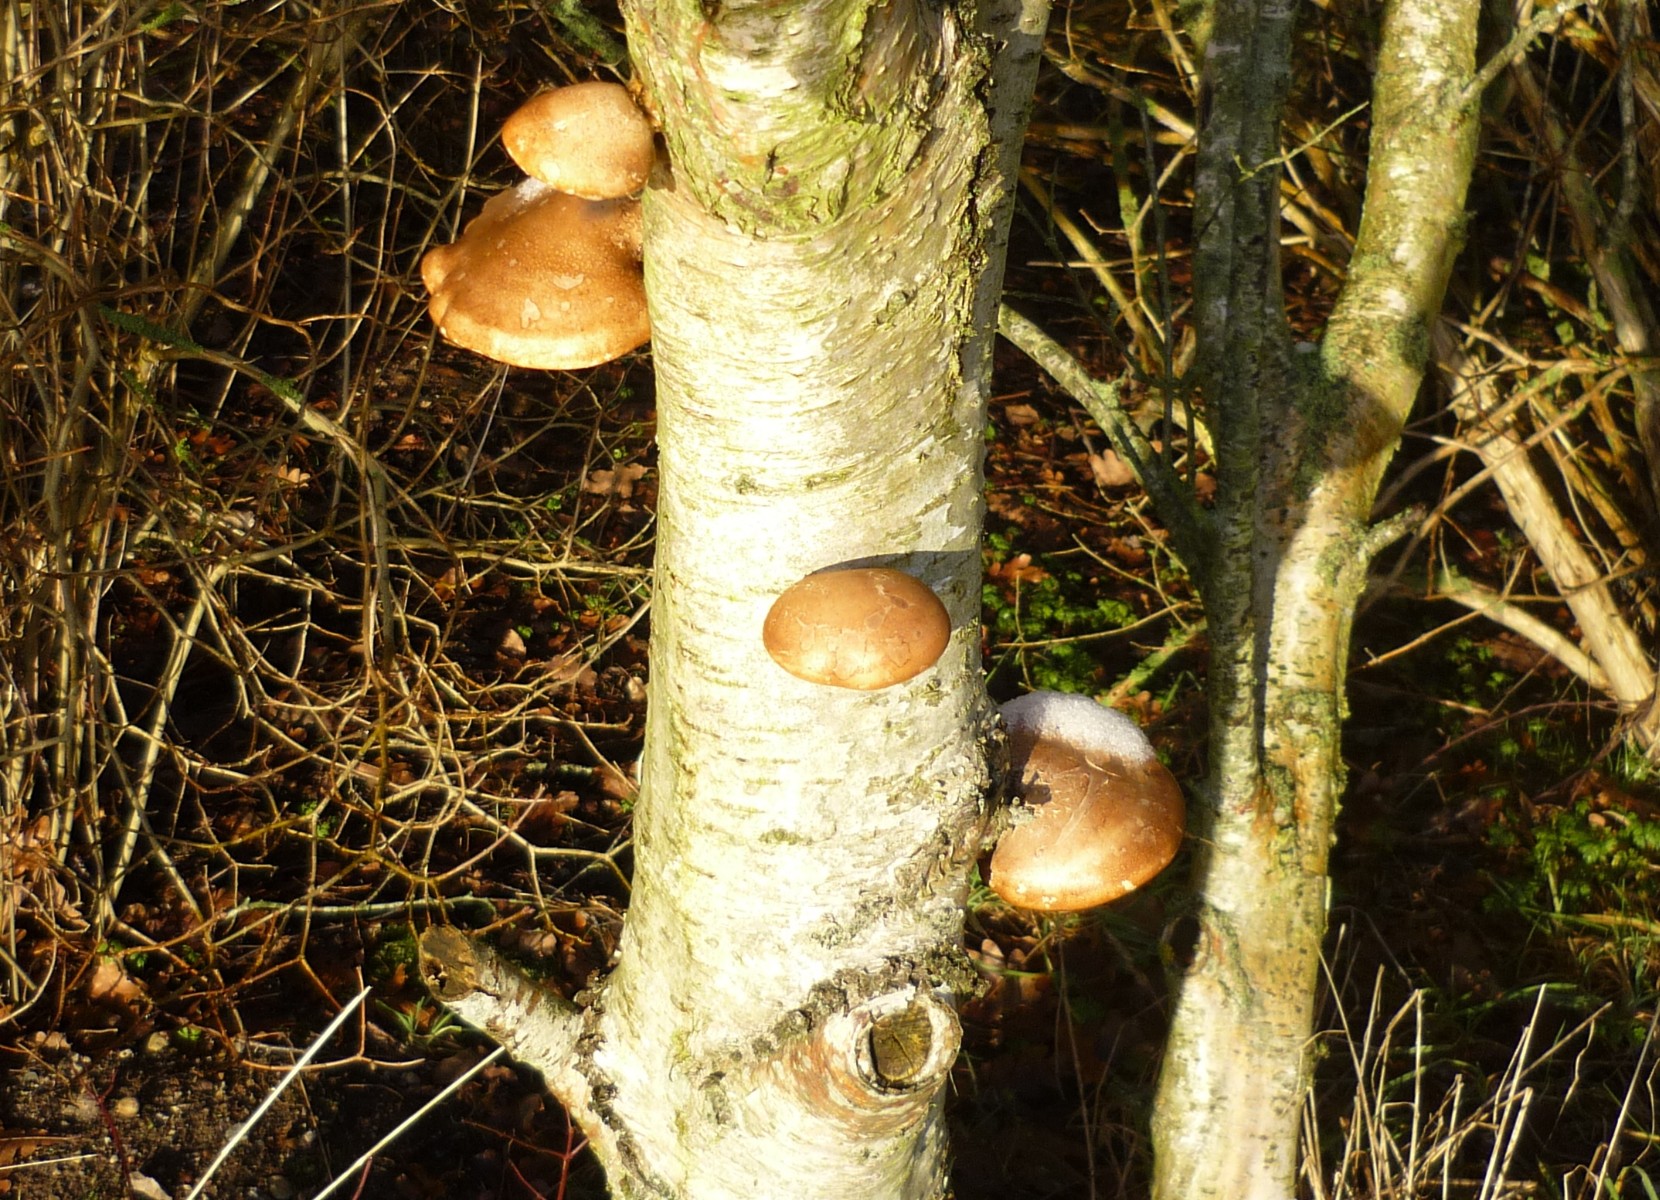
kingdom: Fungi
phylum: Basidiomycota
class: Agaricomycetes
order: Polyporales
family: Fomitopsidaceae
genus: Fomitopsis
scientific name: Fomitopsis betulina
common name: birkeporesvamp
